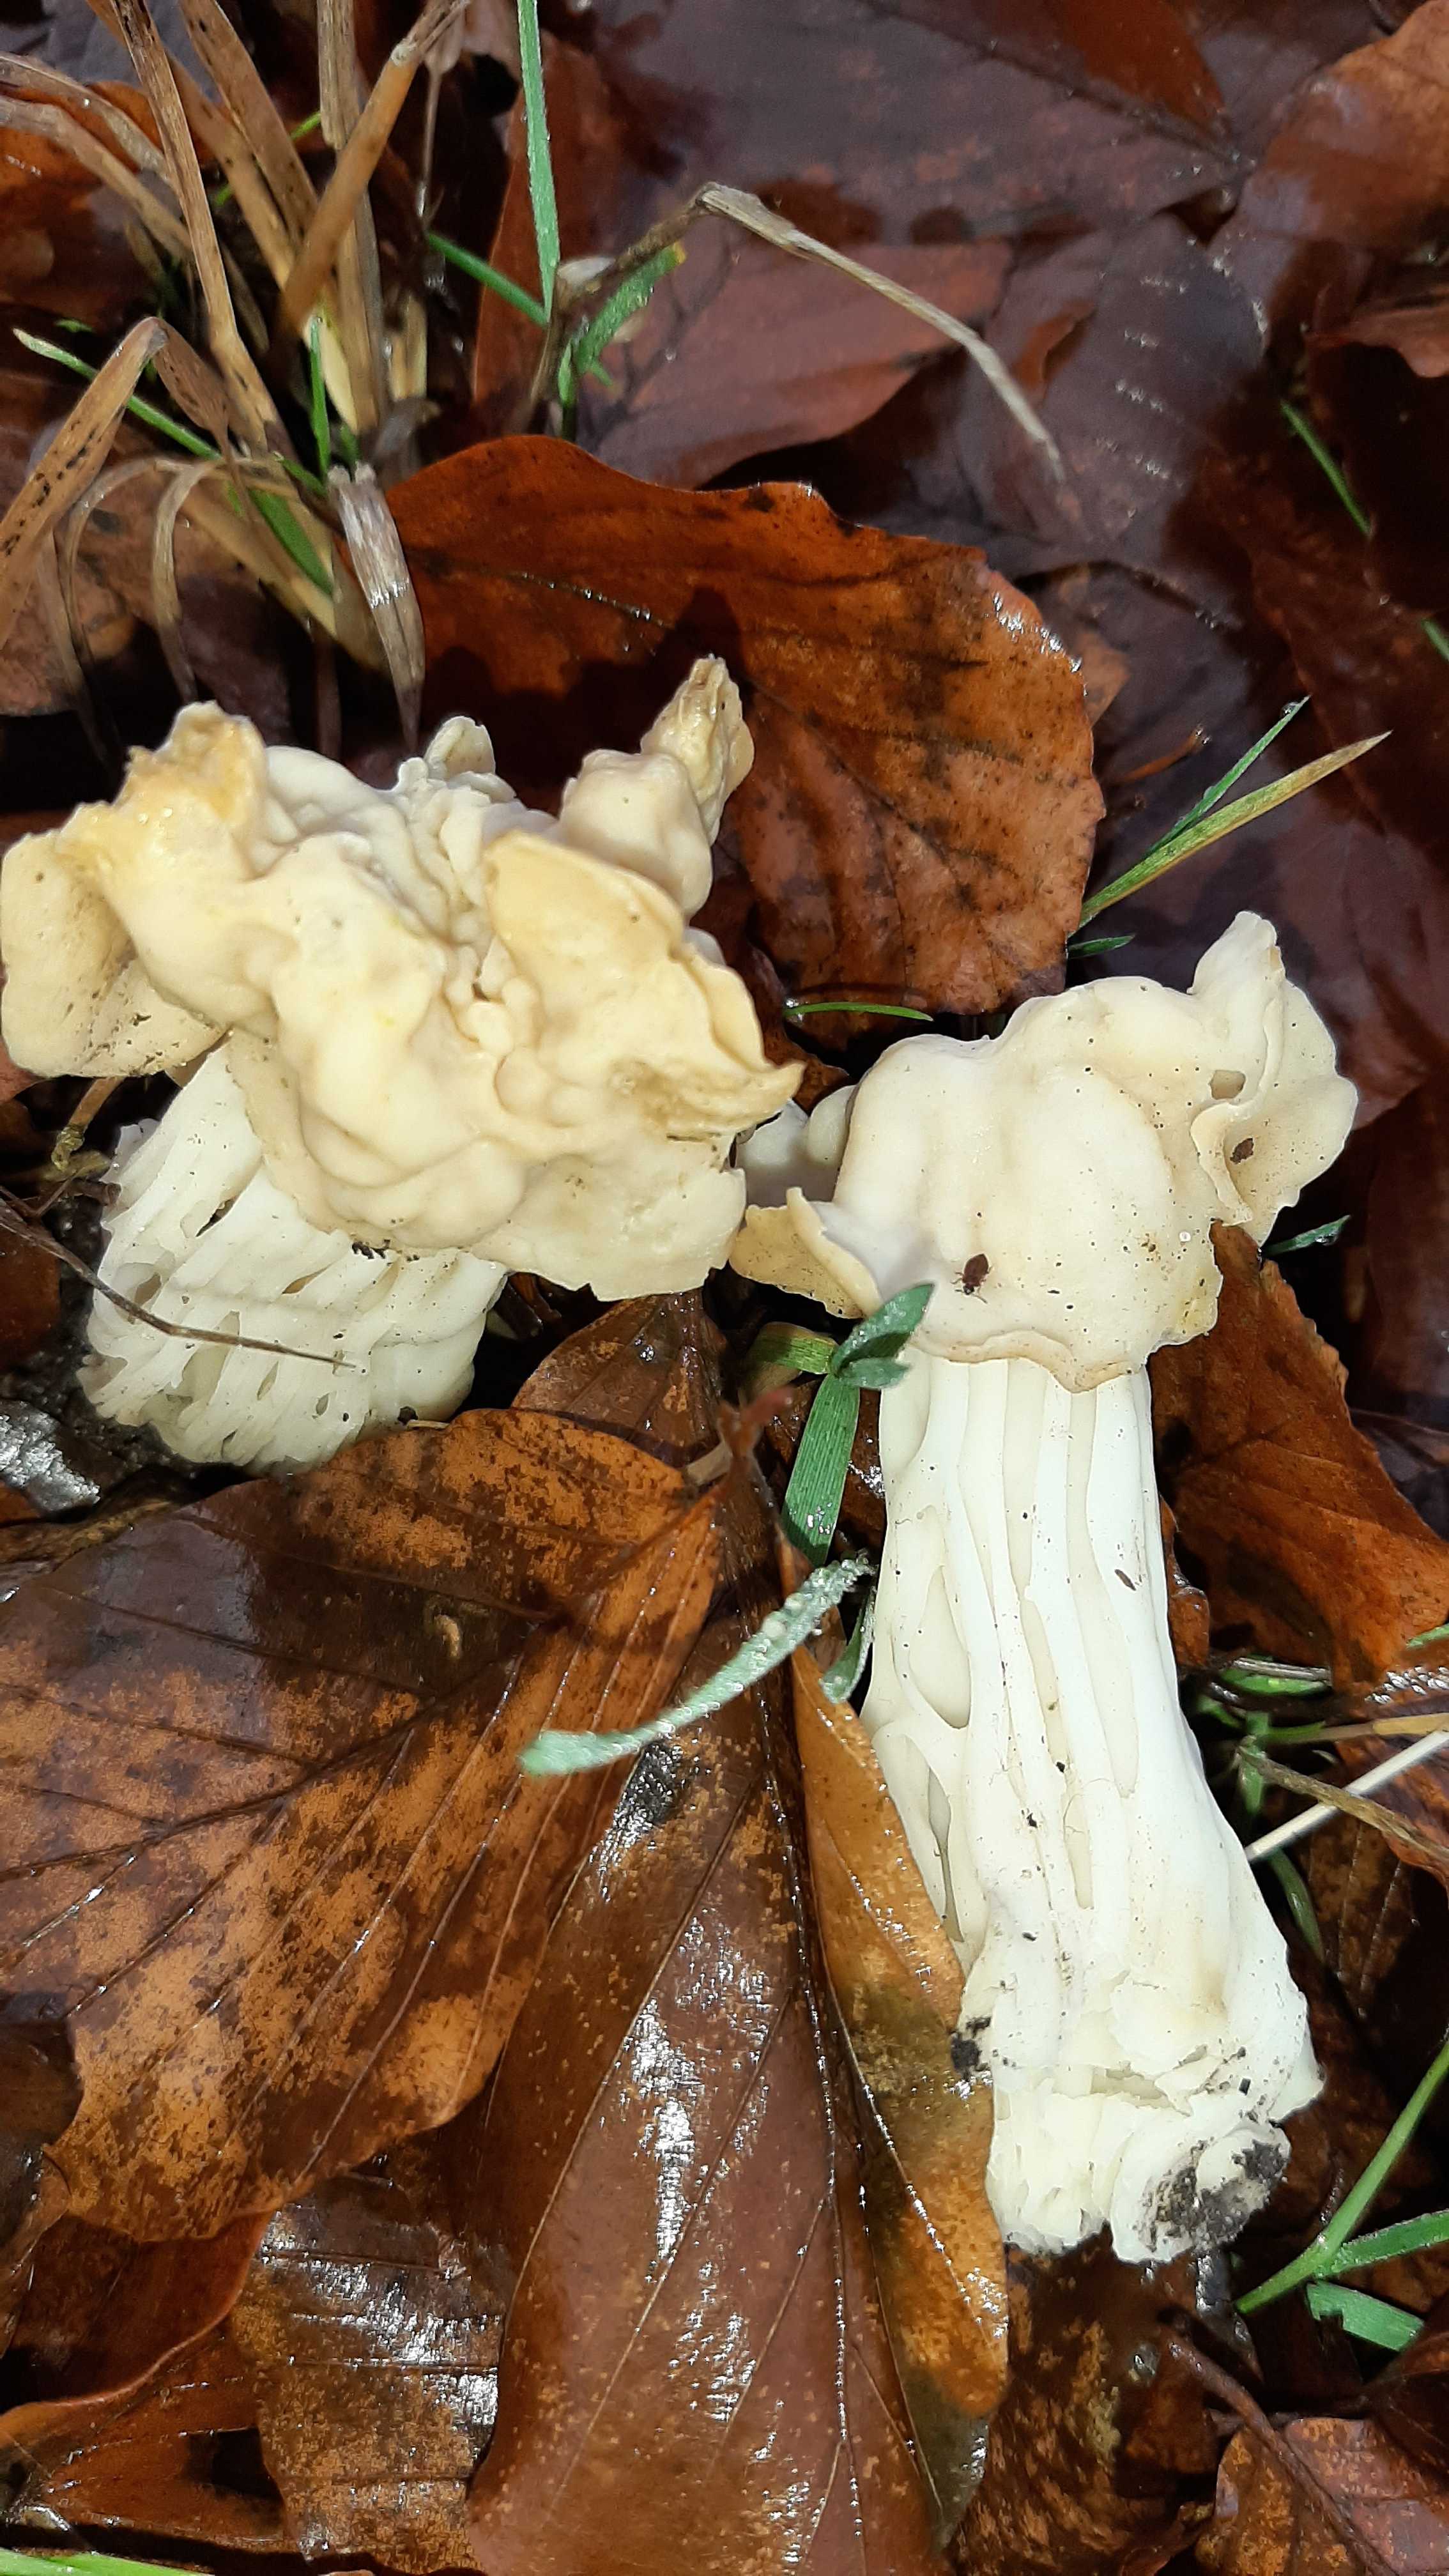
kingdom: Fungi
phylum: Ascomycota
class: Pezizomycetes
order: Pezizales
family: Helvellaceae
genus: Helvella
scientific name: Helvella crispa
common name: kruset foldhat
